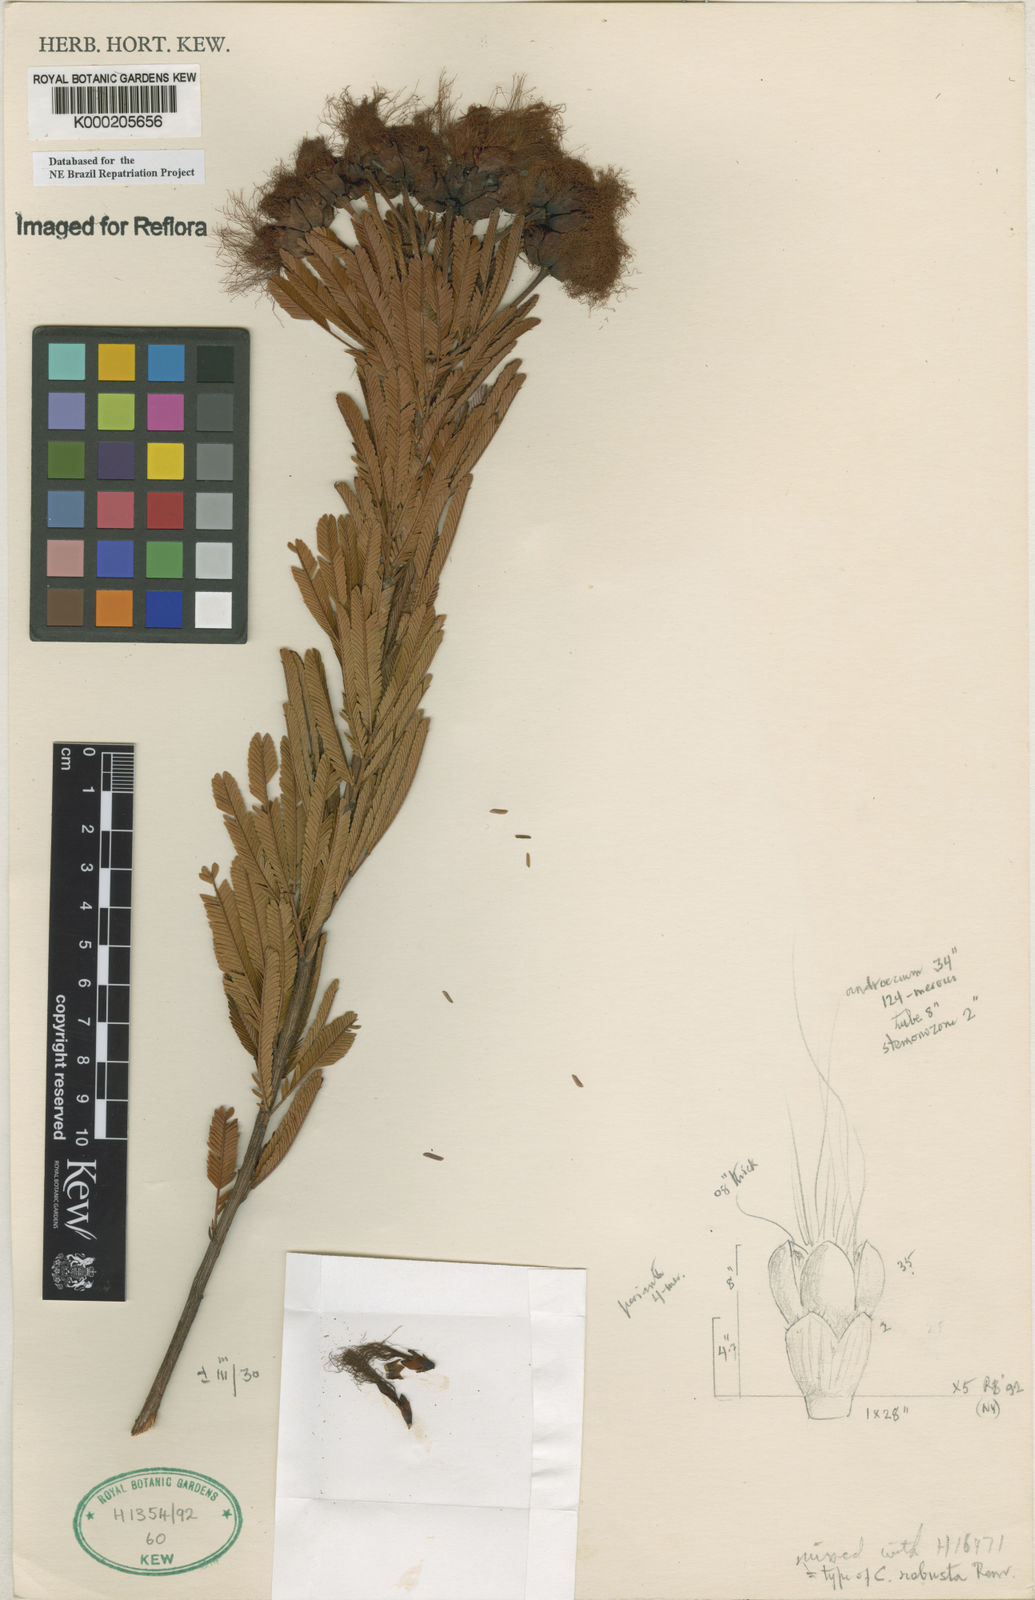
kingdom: Plantae
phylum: Tracheophyta
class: Magnoliopsida
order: Fabales
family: Fabaceae
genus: Calliandra
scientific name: Calliandra
